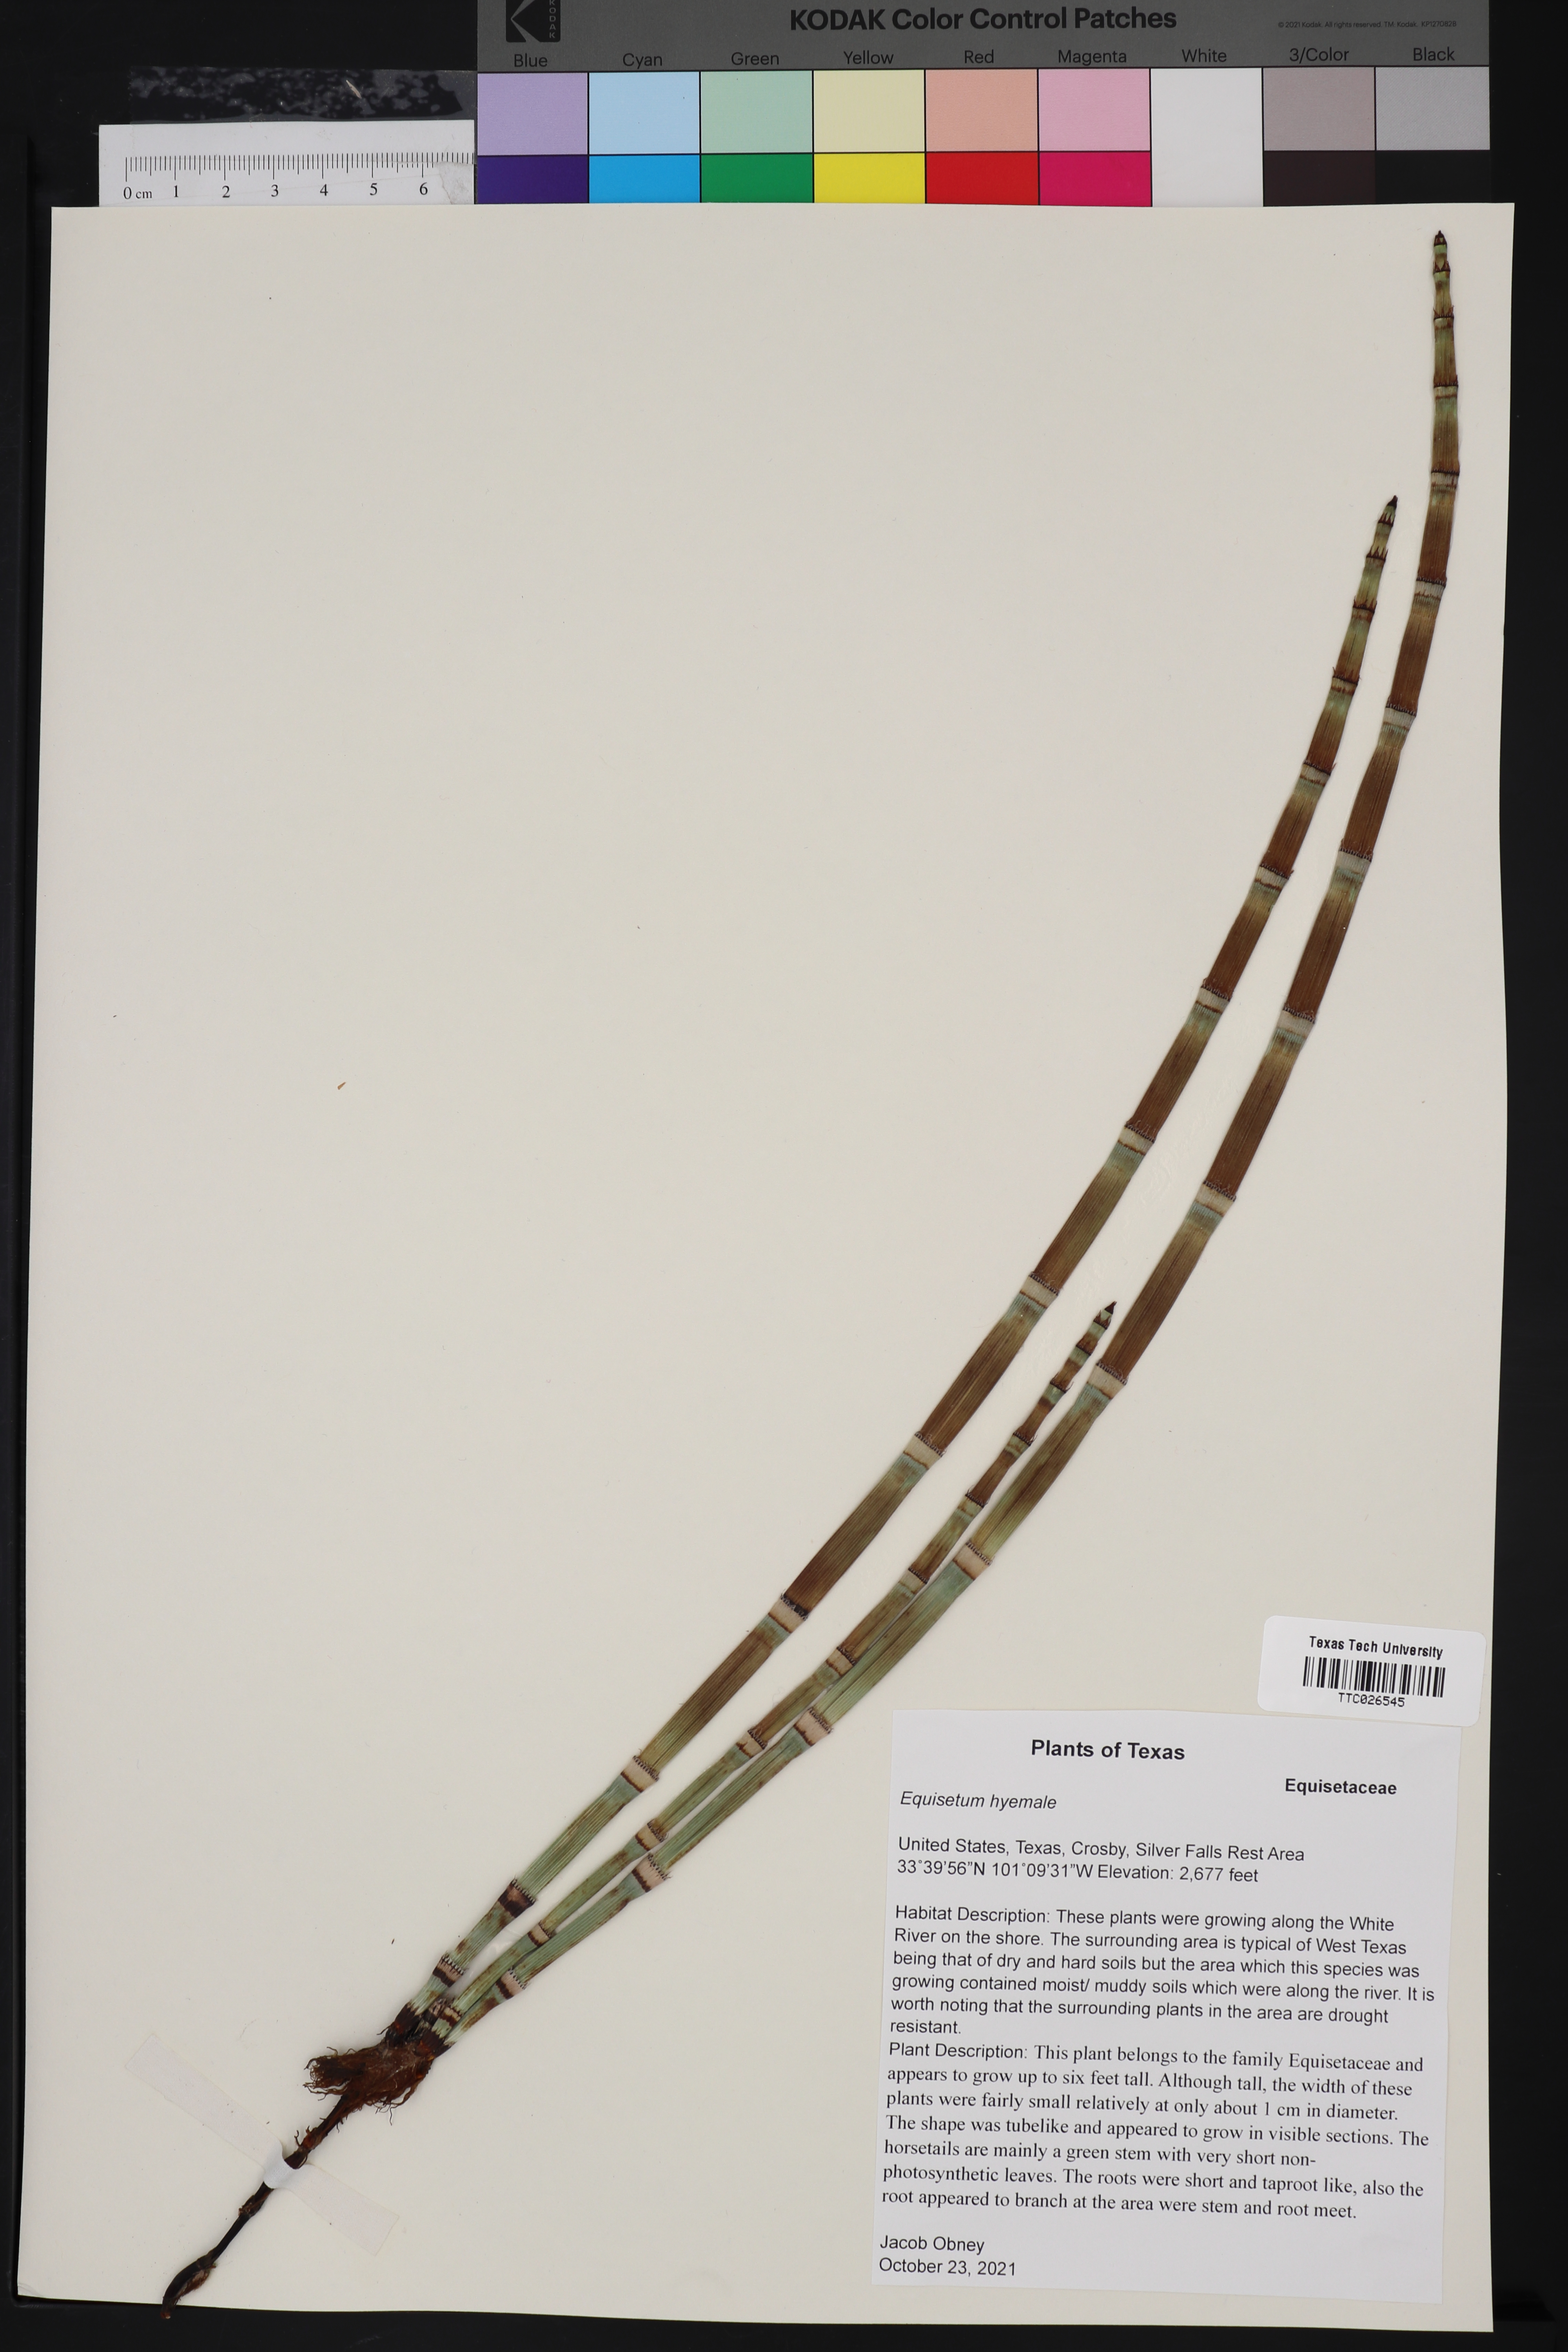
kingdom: Plantae
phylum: Tracheophyta
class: Polypodiopsida
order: Equisetales
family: Equisetaceae
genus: Equisetum
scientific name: Equisetum hyemale
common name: Rough horsetail
